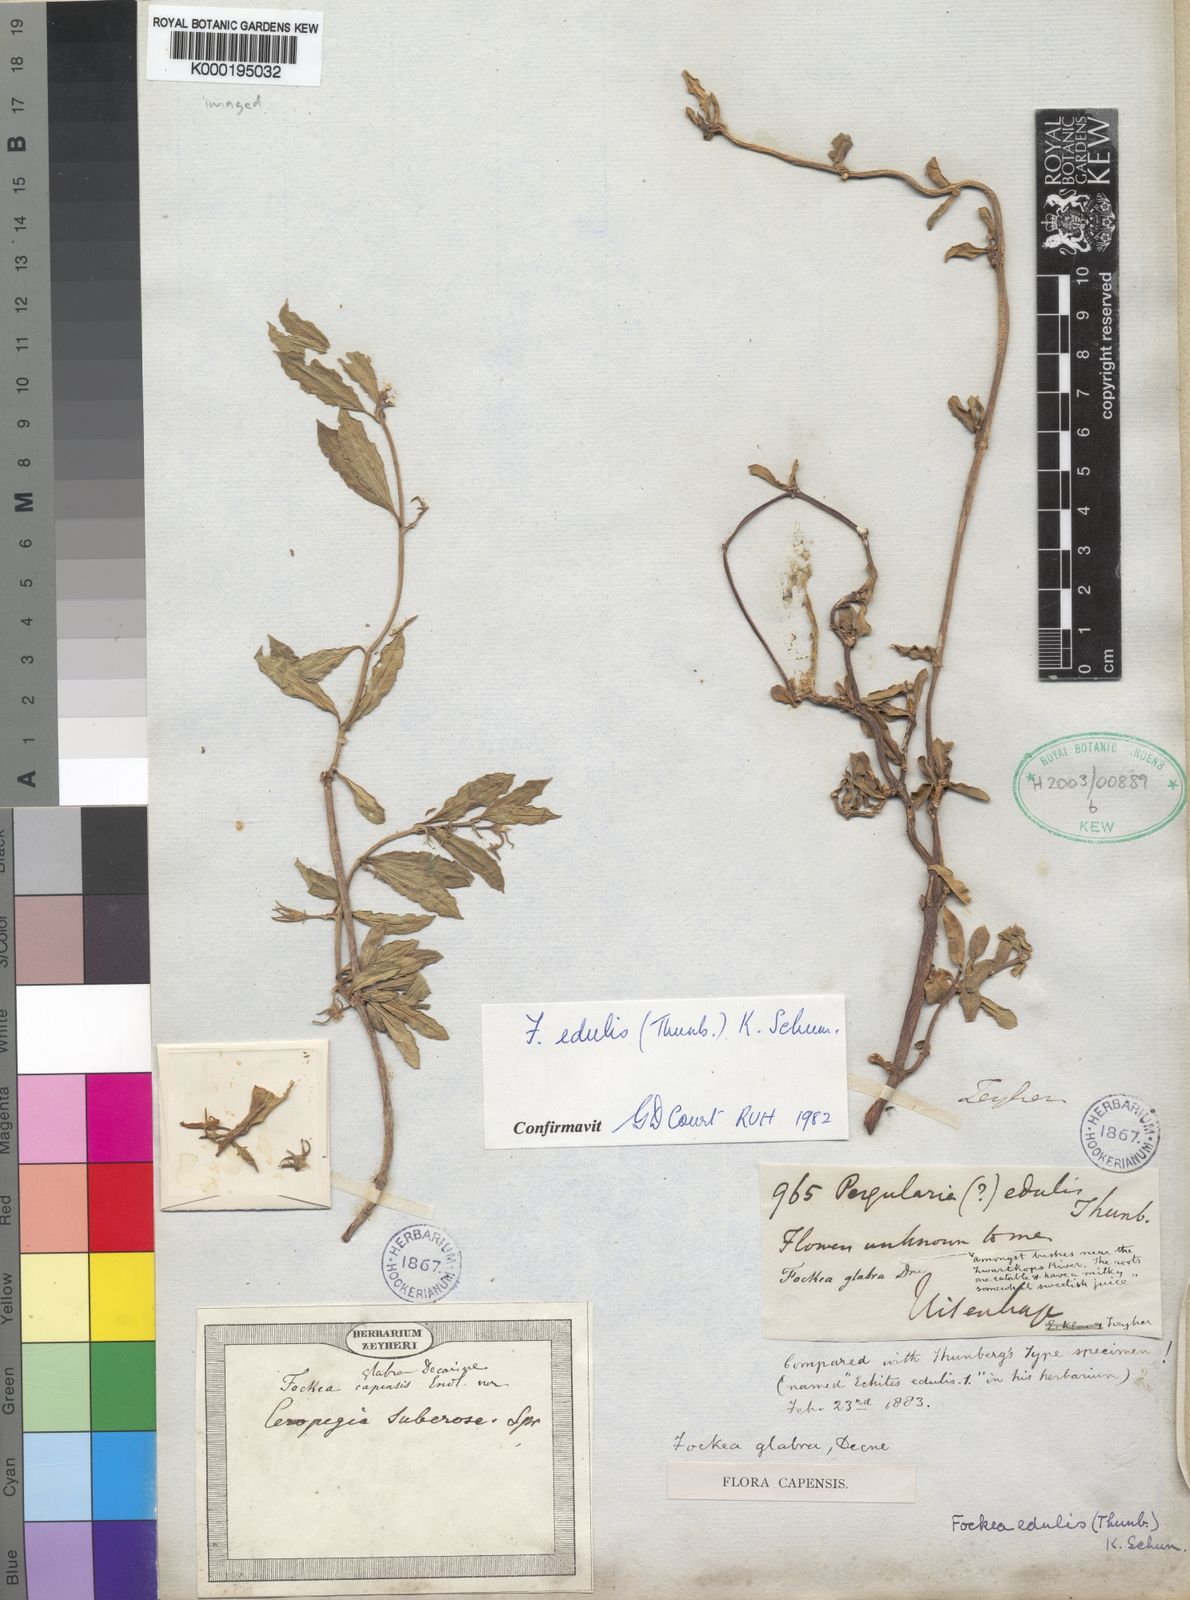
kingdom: Plantae
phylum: Tracheophyta
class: Magnoliopsida
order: Gentianales
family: Apocynaceae
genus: Fockea
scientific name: Fockea edulis
